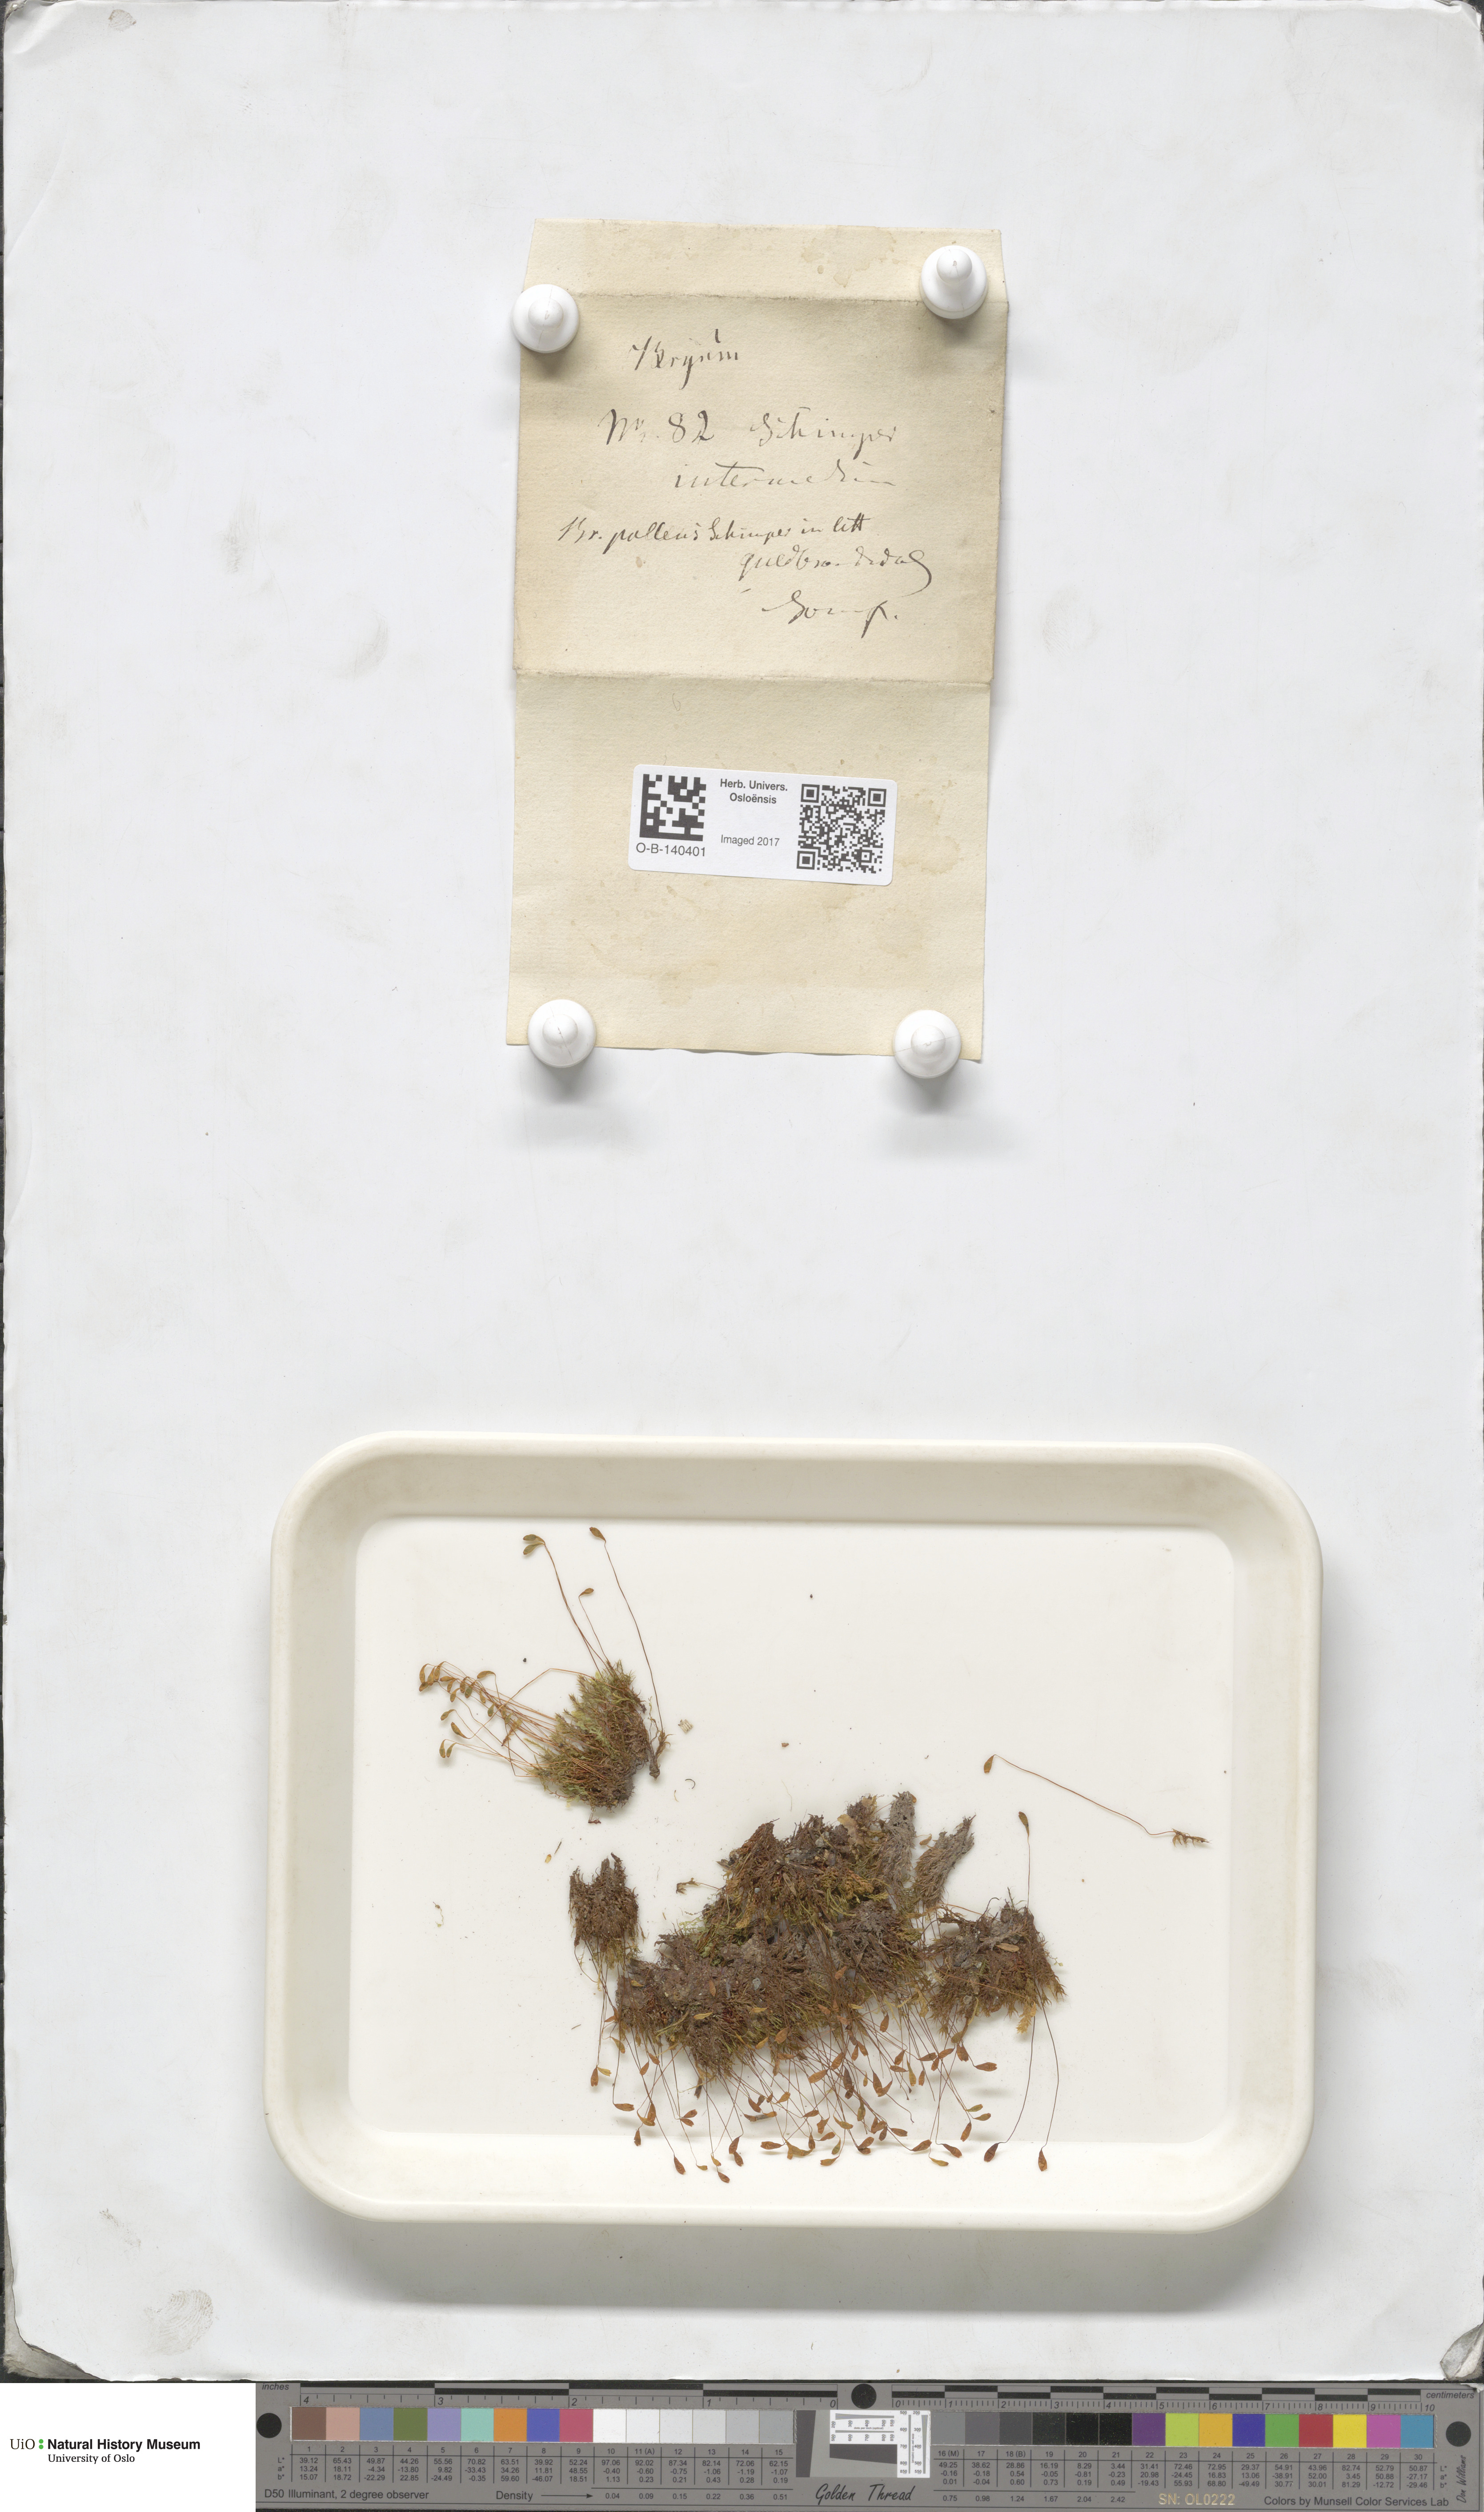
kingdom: Plantae
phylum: Bryophyta
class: Bryopsida
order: Bryales
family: Bryaceae
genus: Ptychostomum
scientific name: Ptychostomum pallens
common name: Pale thread-moss
